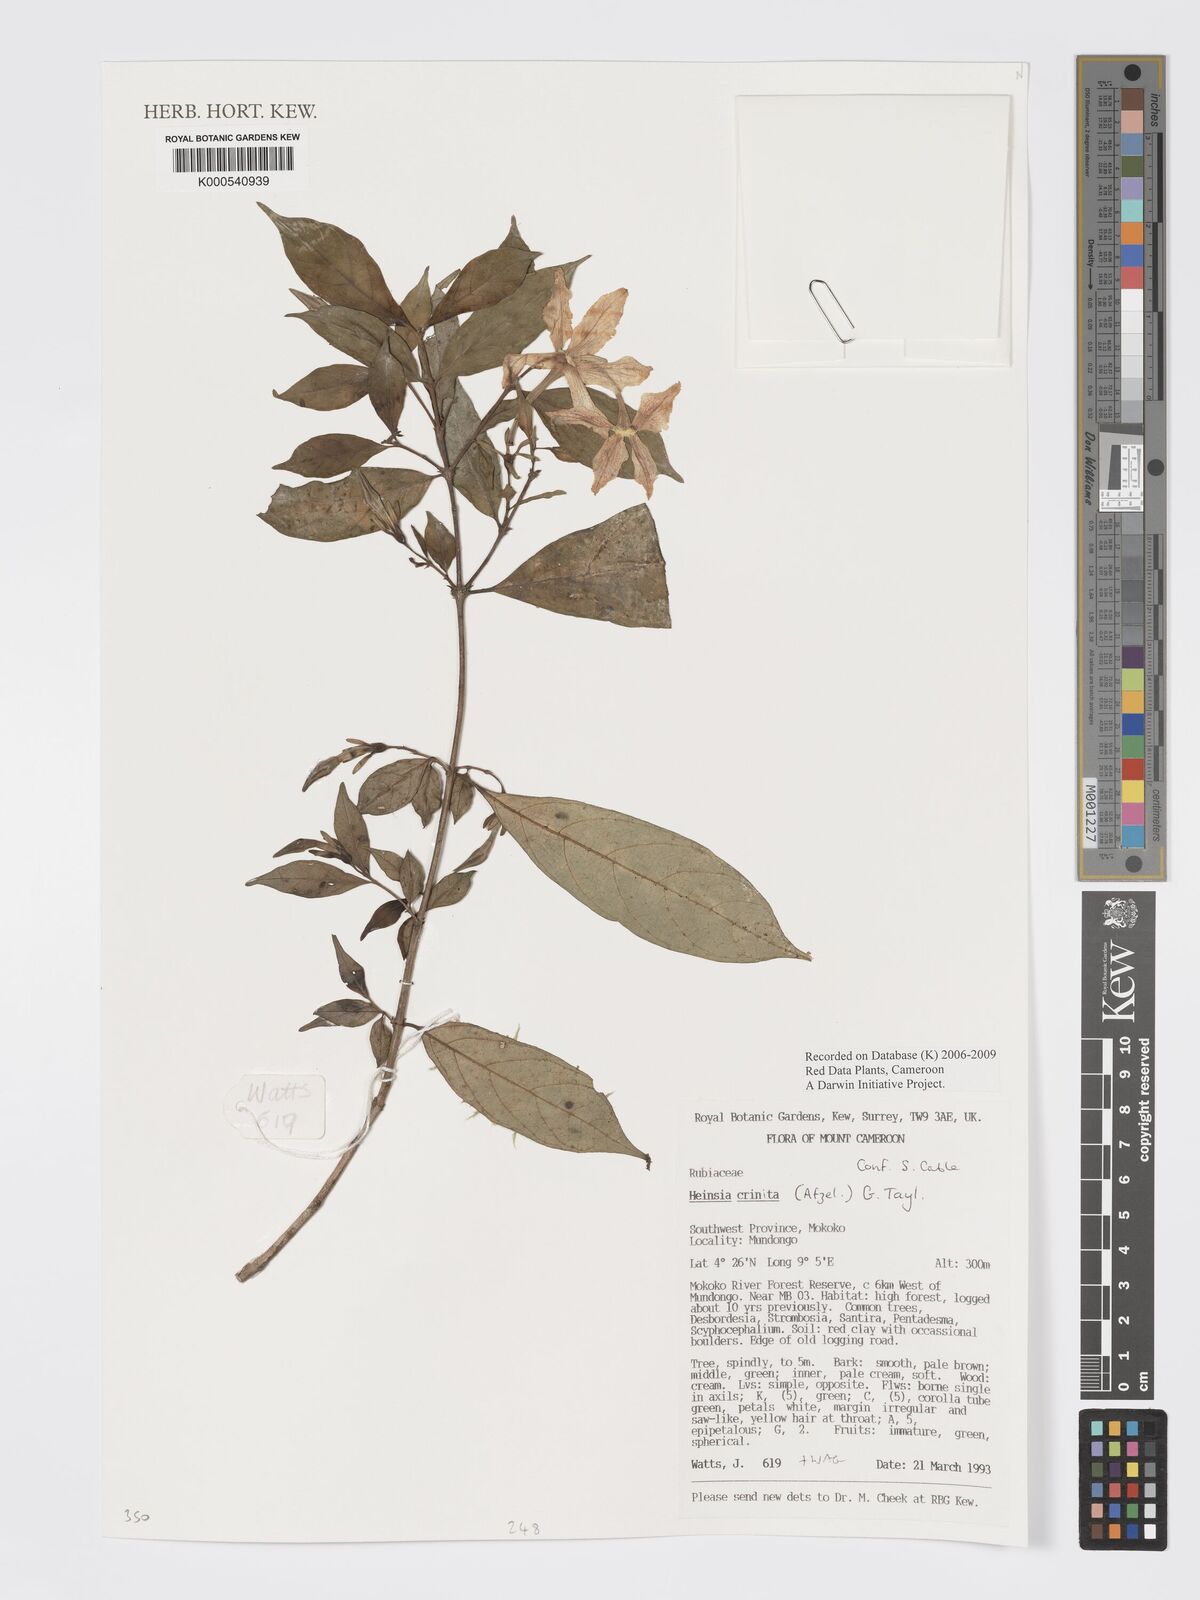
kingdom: Plantae
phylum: Tracheophyta
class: Magnoliopsida
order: Gentianales
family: Rubiaceae
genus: Heinsia
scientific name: Heinsia crinita
